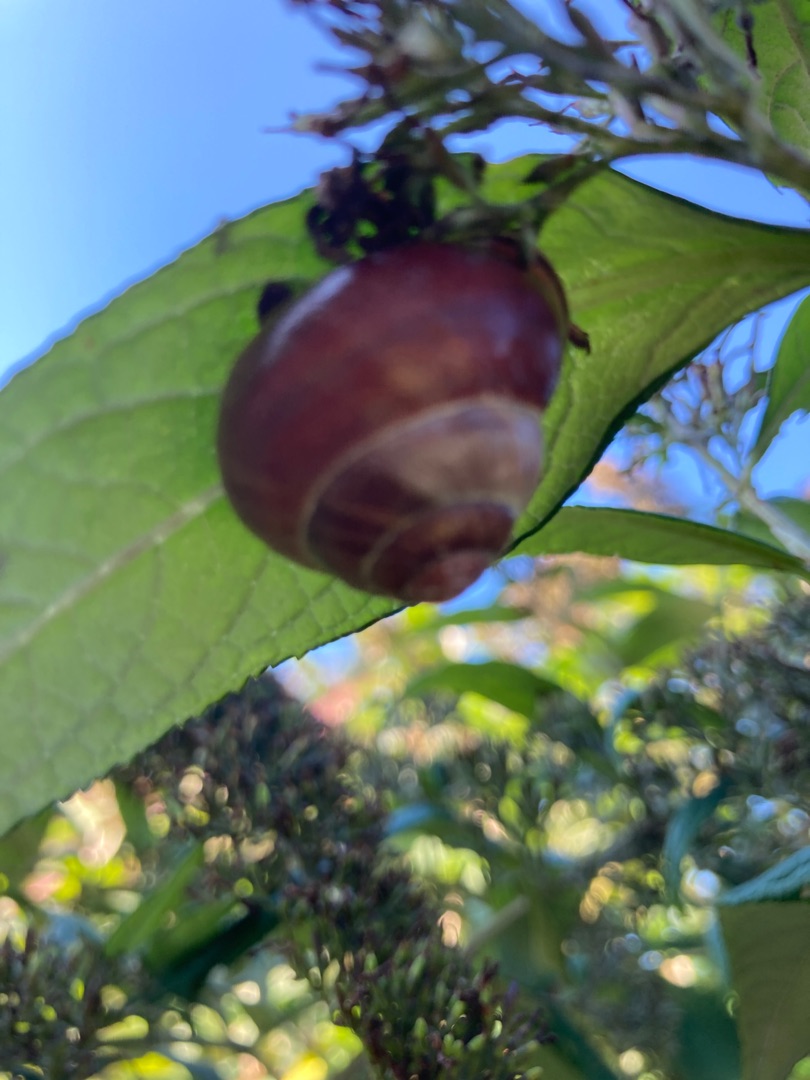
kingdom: Animalia
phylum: Mollusca
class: Gastropoda
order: Stylommatophora
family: Helicidae
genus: Cepaea
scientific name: Cepaea nemoralis
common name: Lundsnegl
